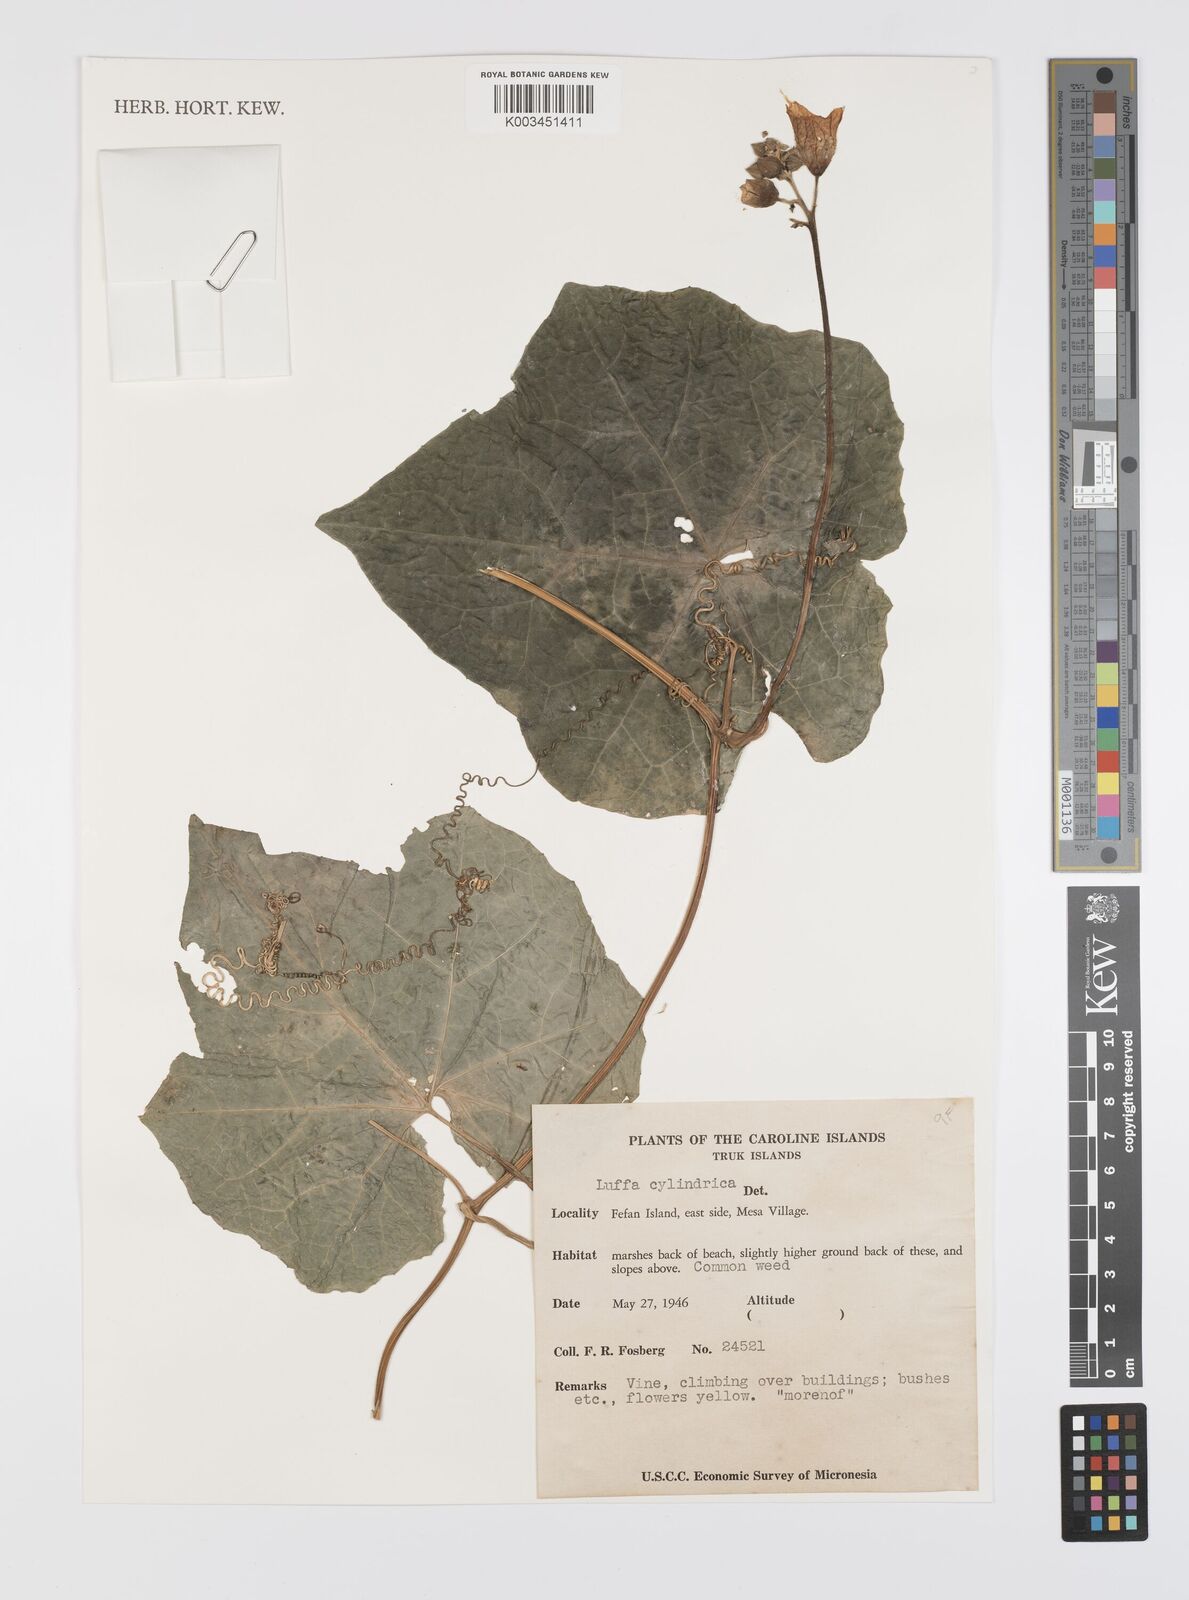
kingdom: Plantae
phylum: Tracheophyta
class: Magnoliopsida
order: Cucurbitales
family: Cucurbitaceae
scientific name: Cucurbitaceae
